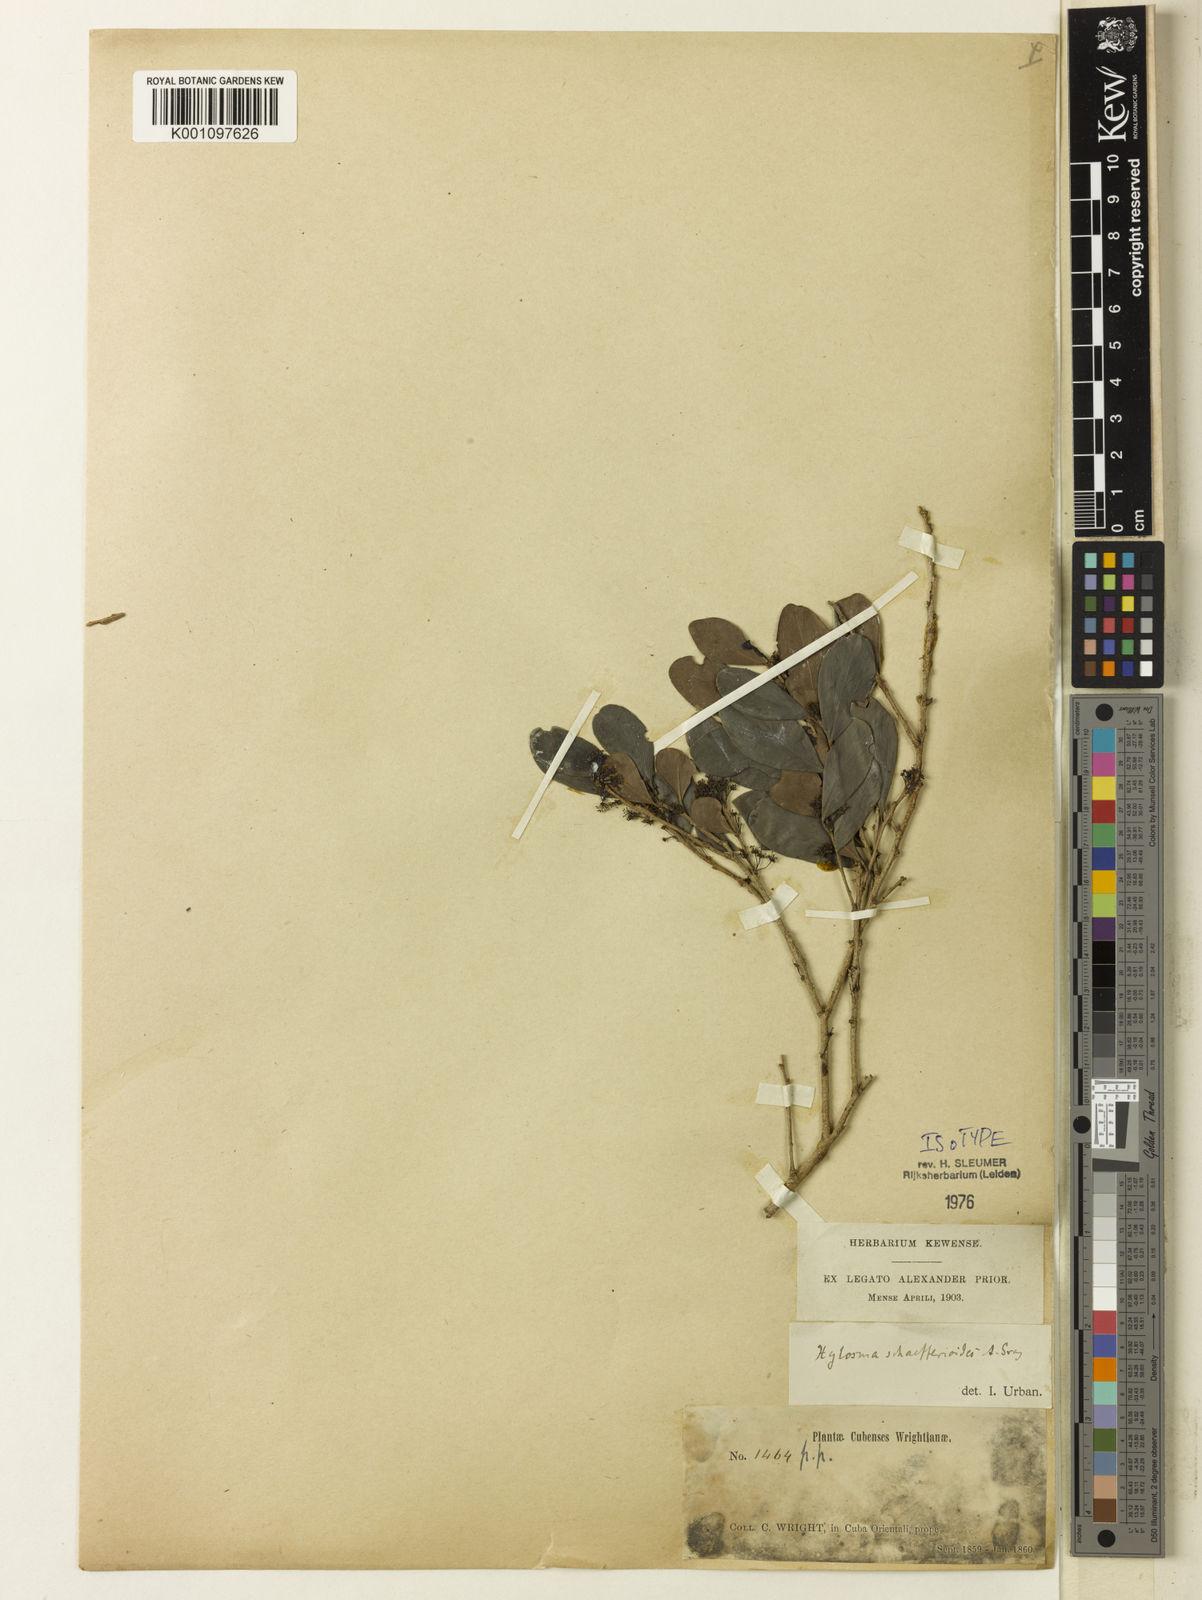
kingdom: Plantae
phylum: Tracheophyta
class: Magnoliopsida
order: Malpighiales
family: Salicaceae
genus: Xylosma
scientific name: Xylosma schaefferioides
